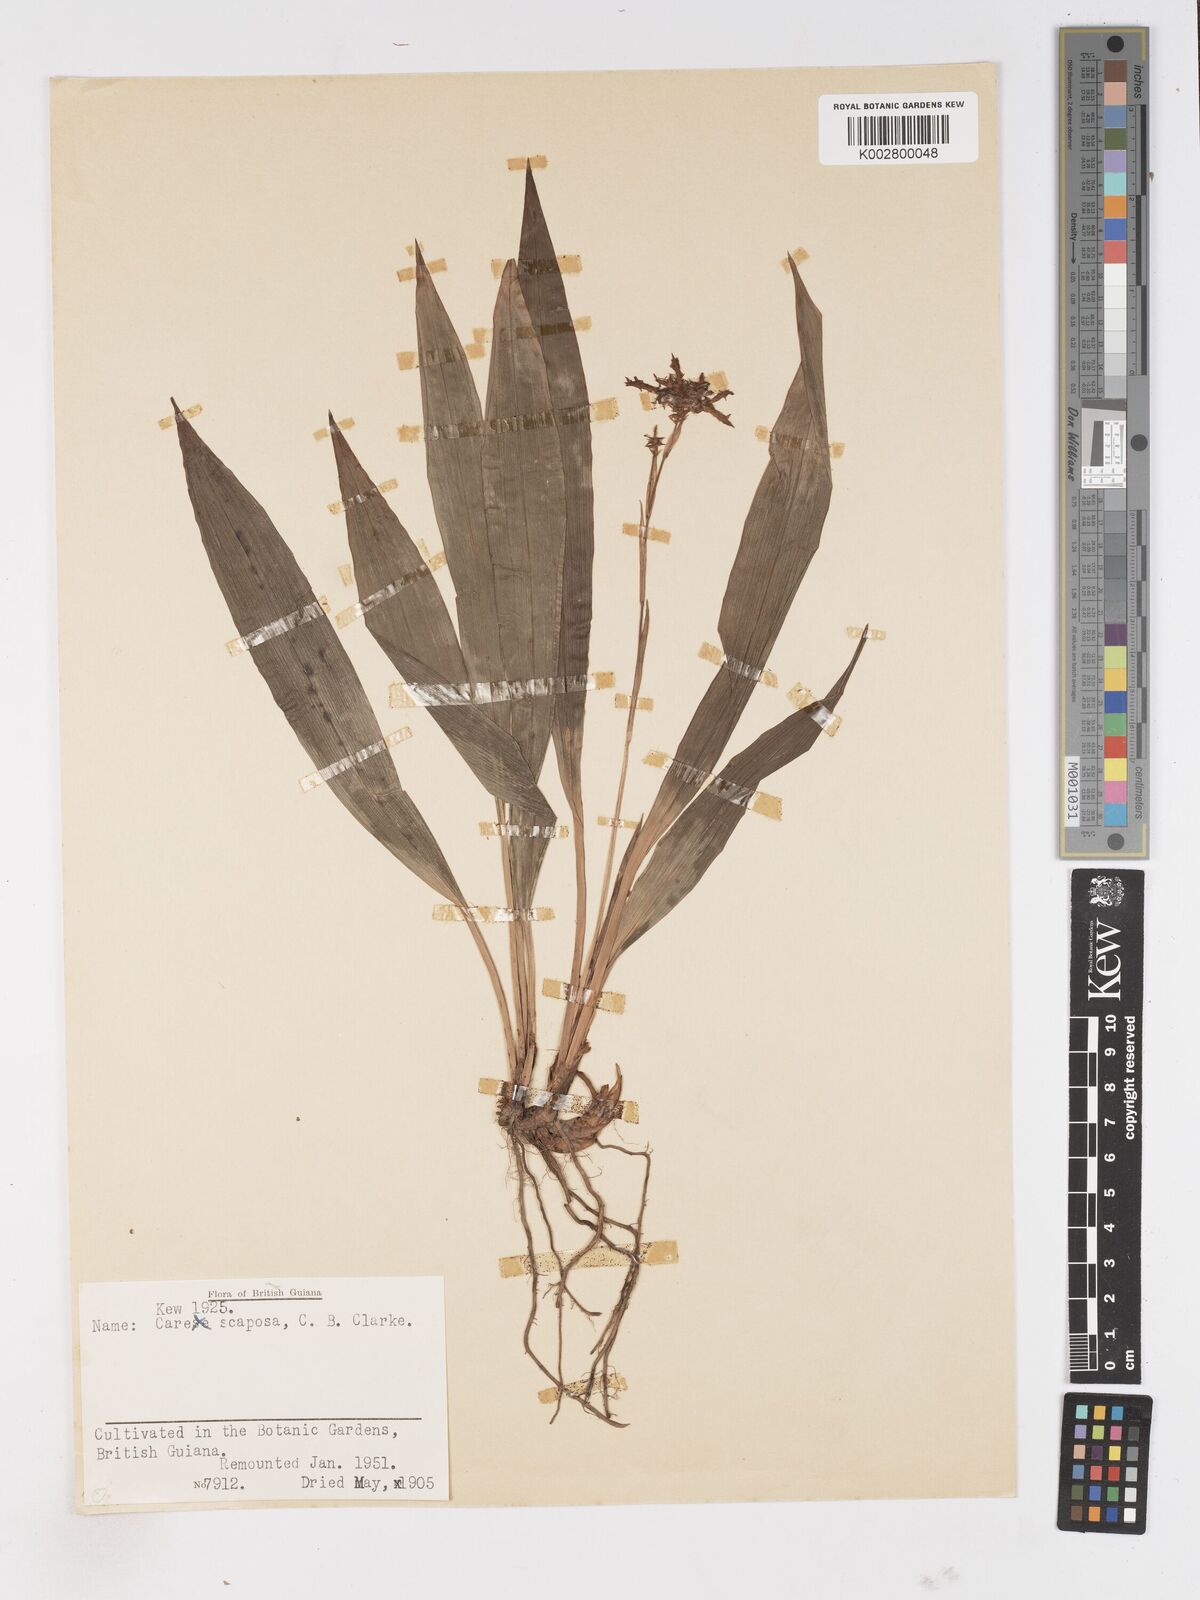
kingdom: Plantae
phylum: Tracheophyta
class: Liliopsida
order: Poales
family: Cyperaceae
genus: Carex
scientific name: Carex scaposa
